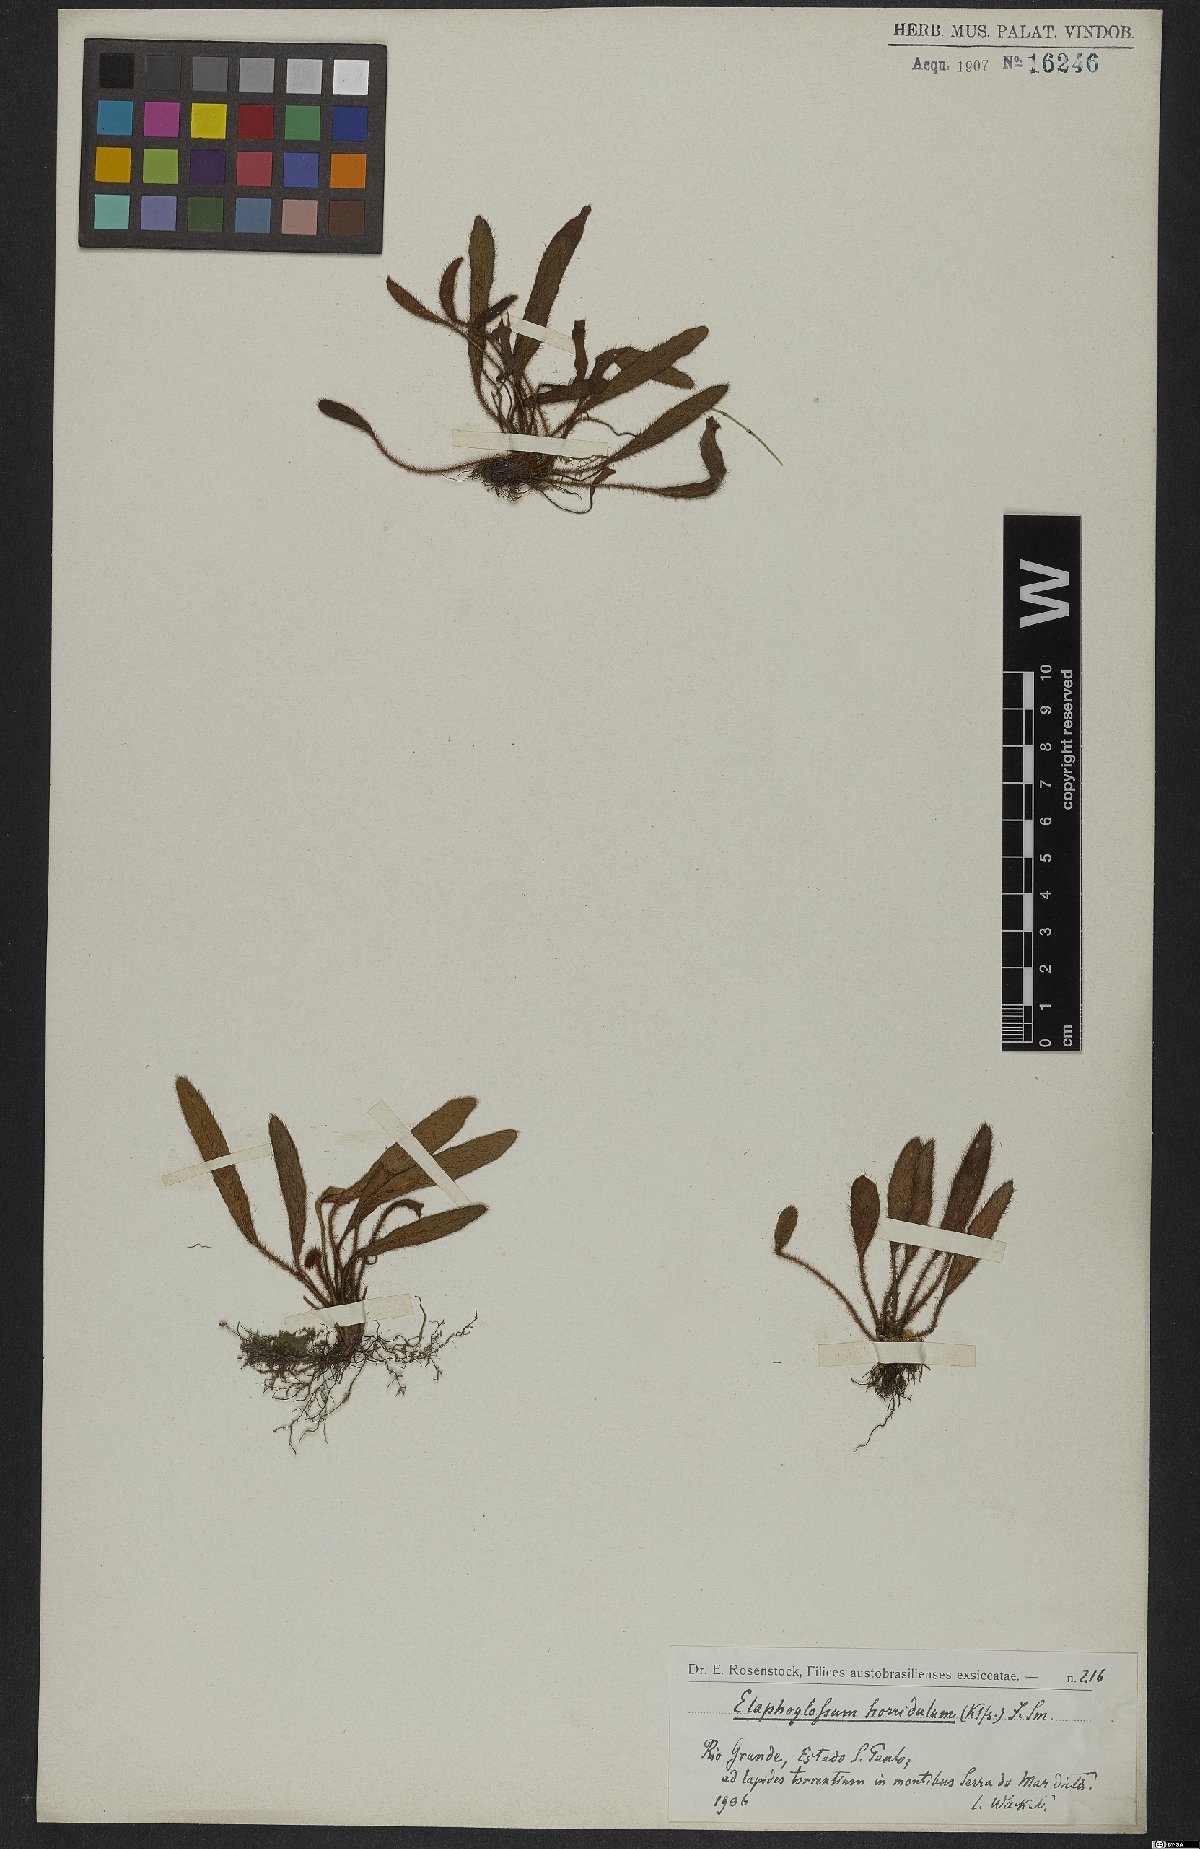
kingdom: Plantae
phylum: Tracheophyta
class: Polypodiopsida
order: Polypodiales
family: Dryopteridaceae
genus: Elaphoglossum
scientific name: Elaphoglossum spatulatum
